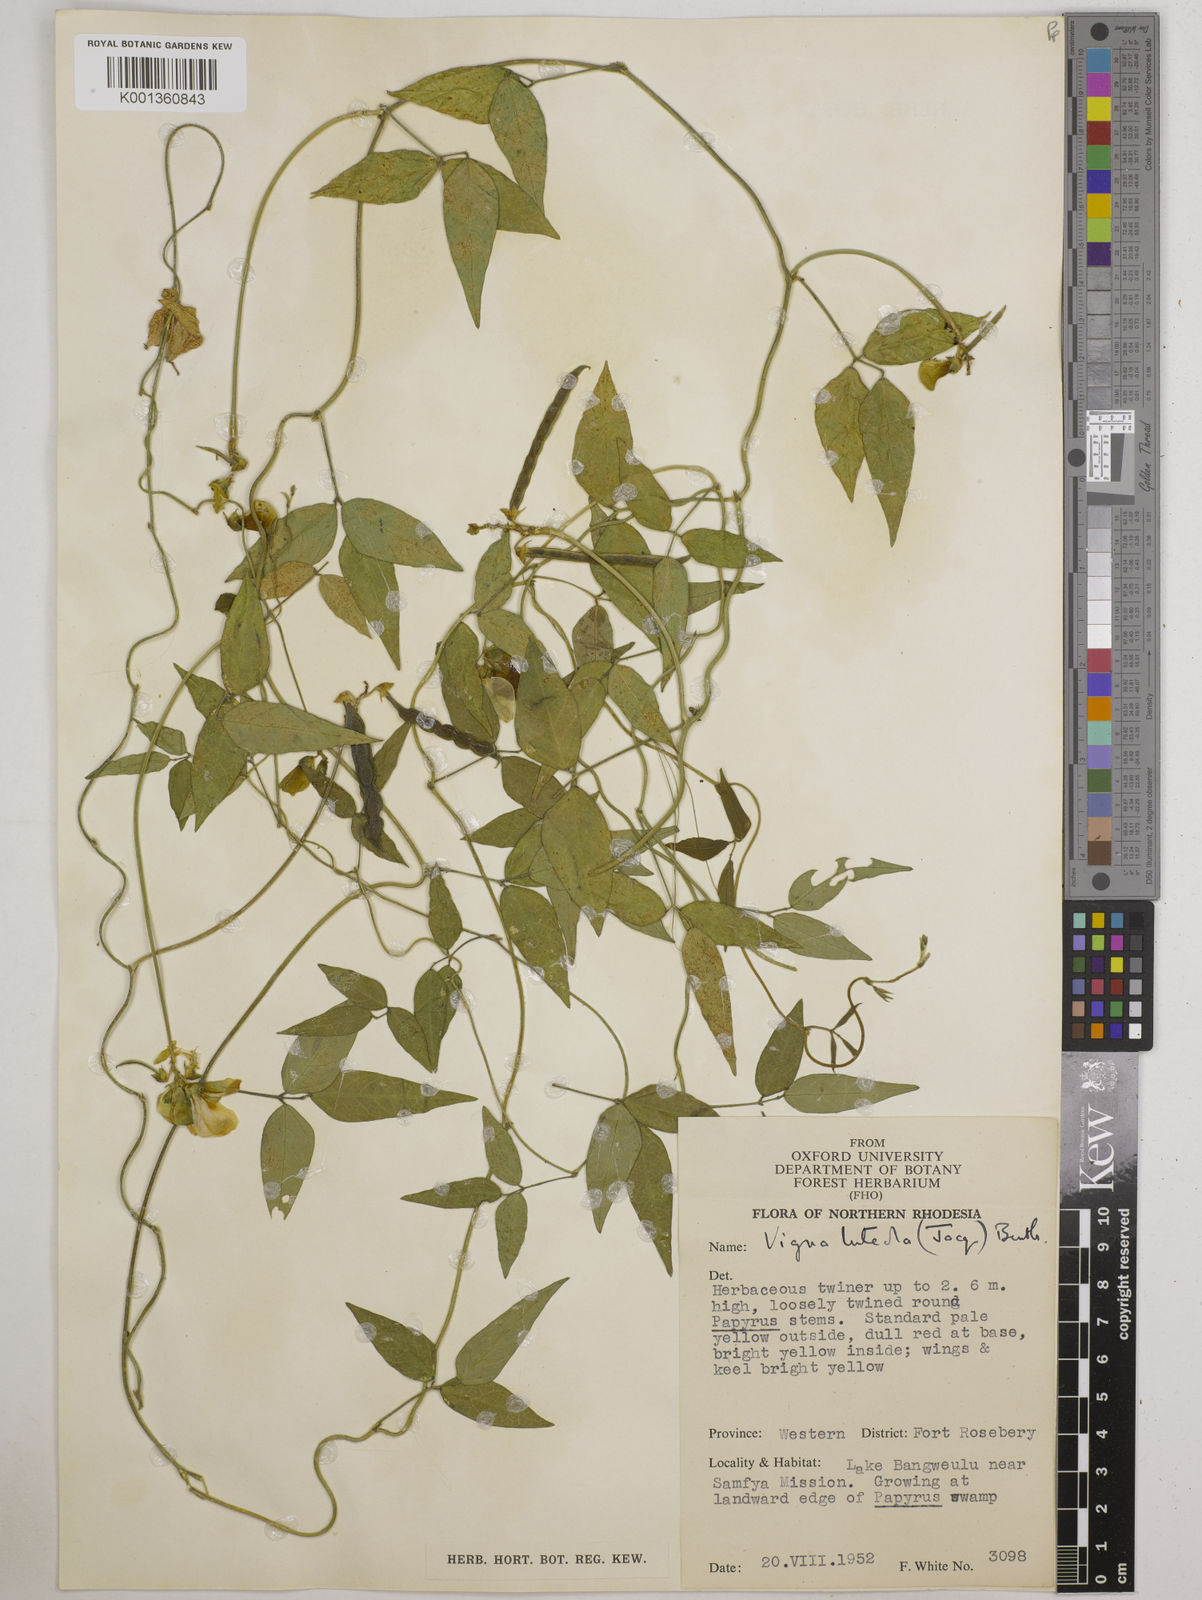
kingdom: Plantae
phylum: Tracheophyta
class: Magnoliopsida
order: Fabales
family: Fabaceae
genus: Vigna
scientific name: Vigna luteola
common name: Hairypod cowpea
